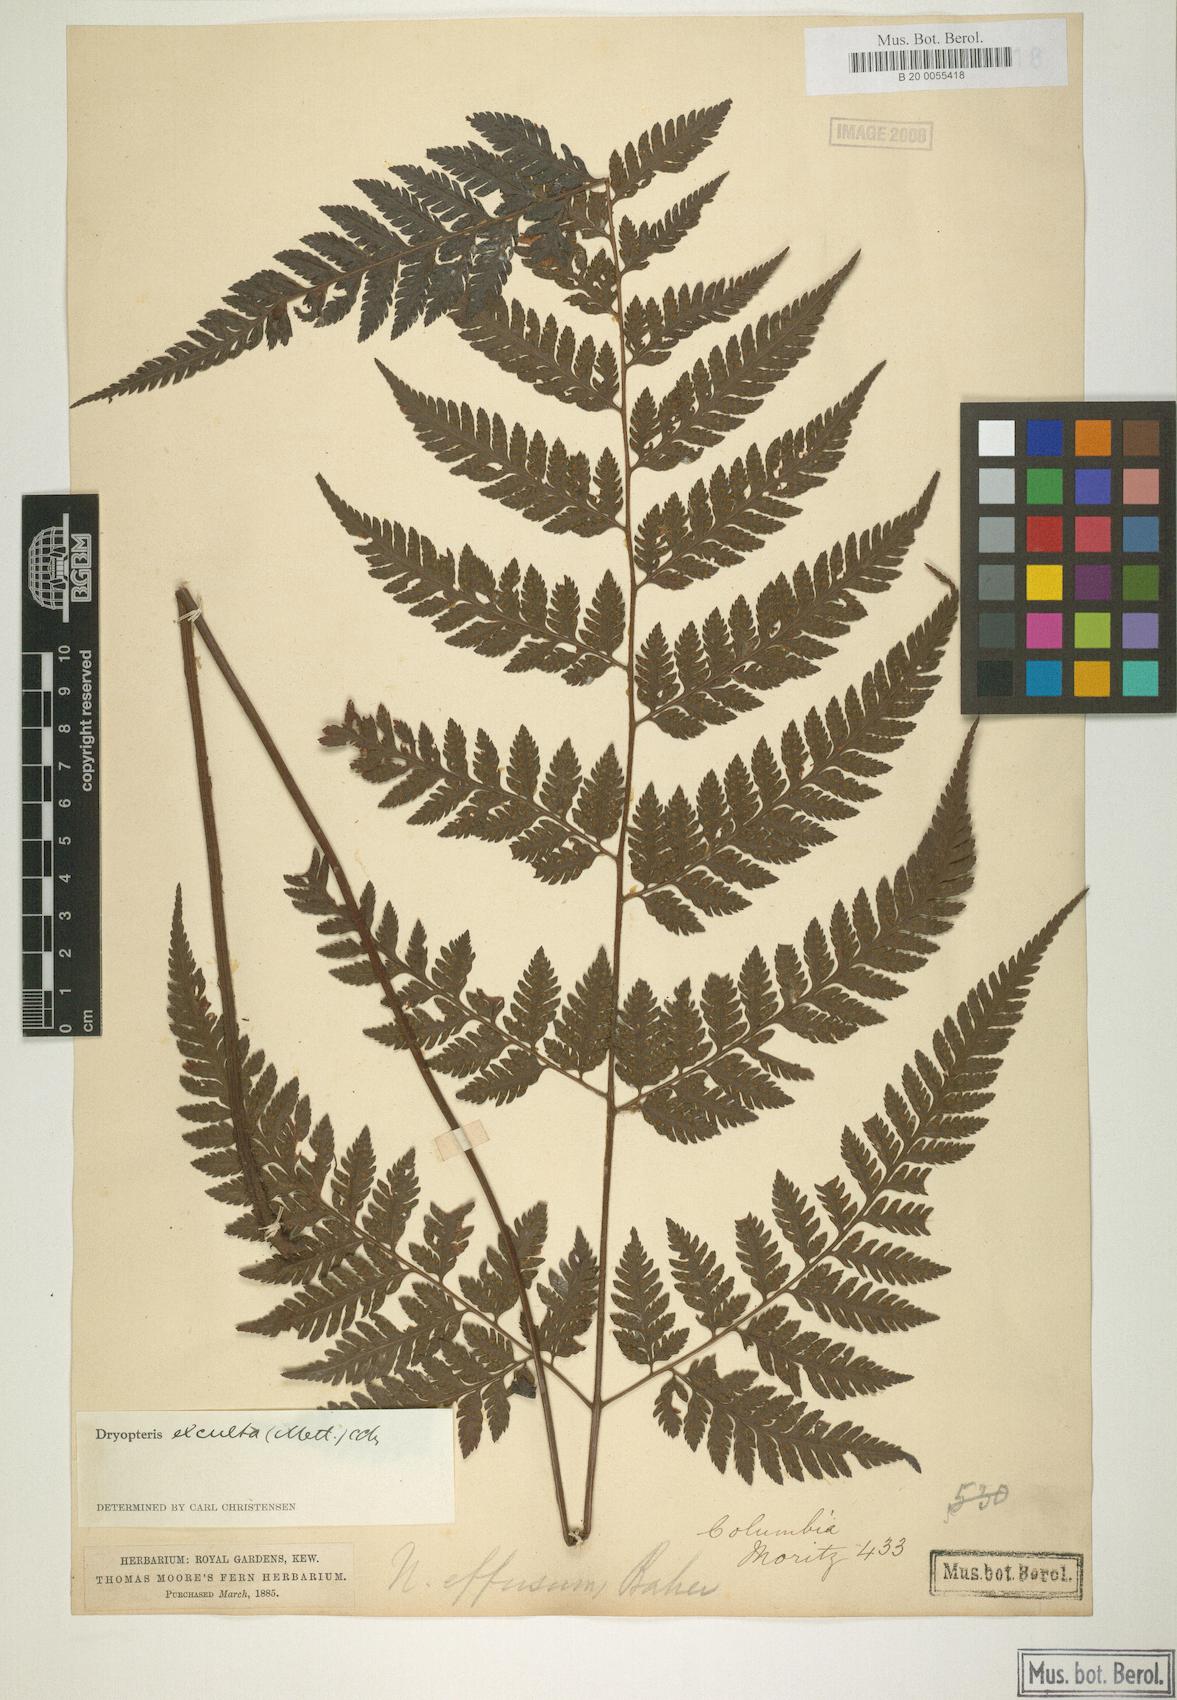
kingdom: Plantae
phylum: Tracheophyta
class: Polypodiopsida
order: Polypodiales
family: Dryopteridaceae
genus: Parapolystichum
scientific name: Parapolystichum excultum
